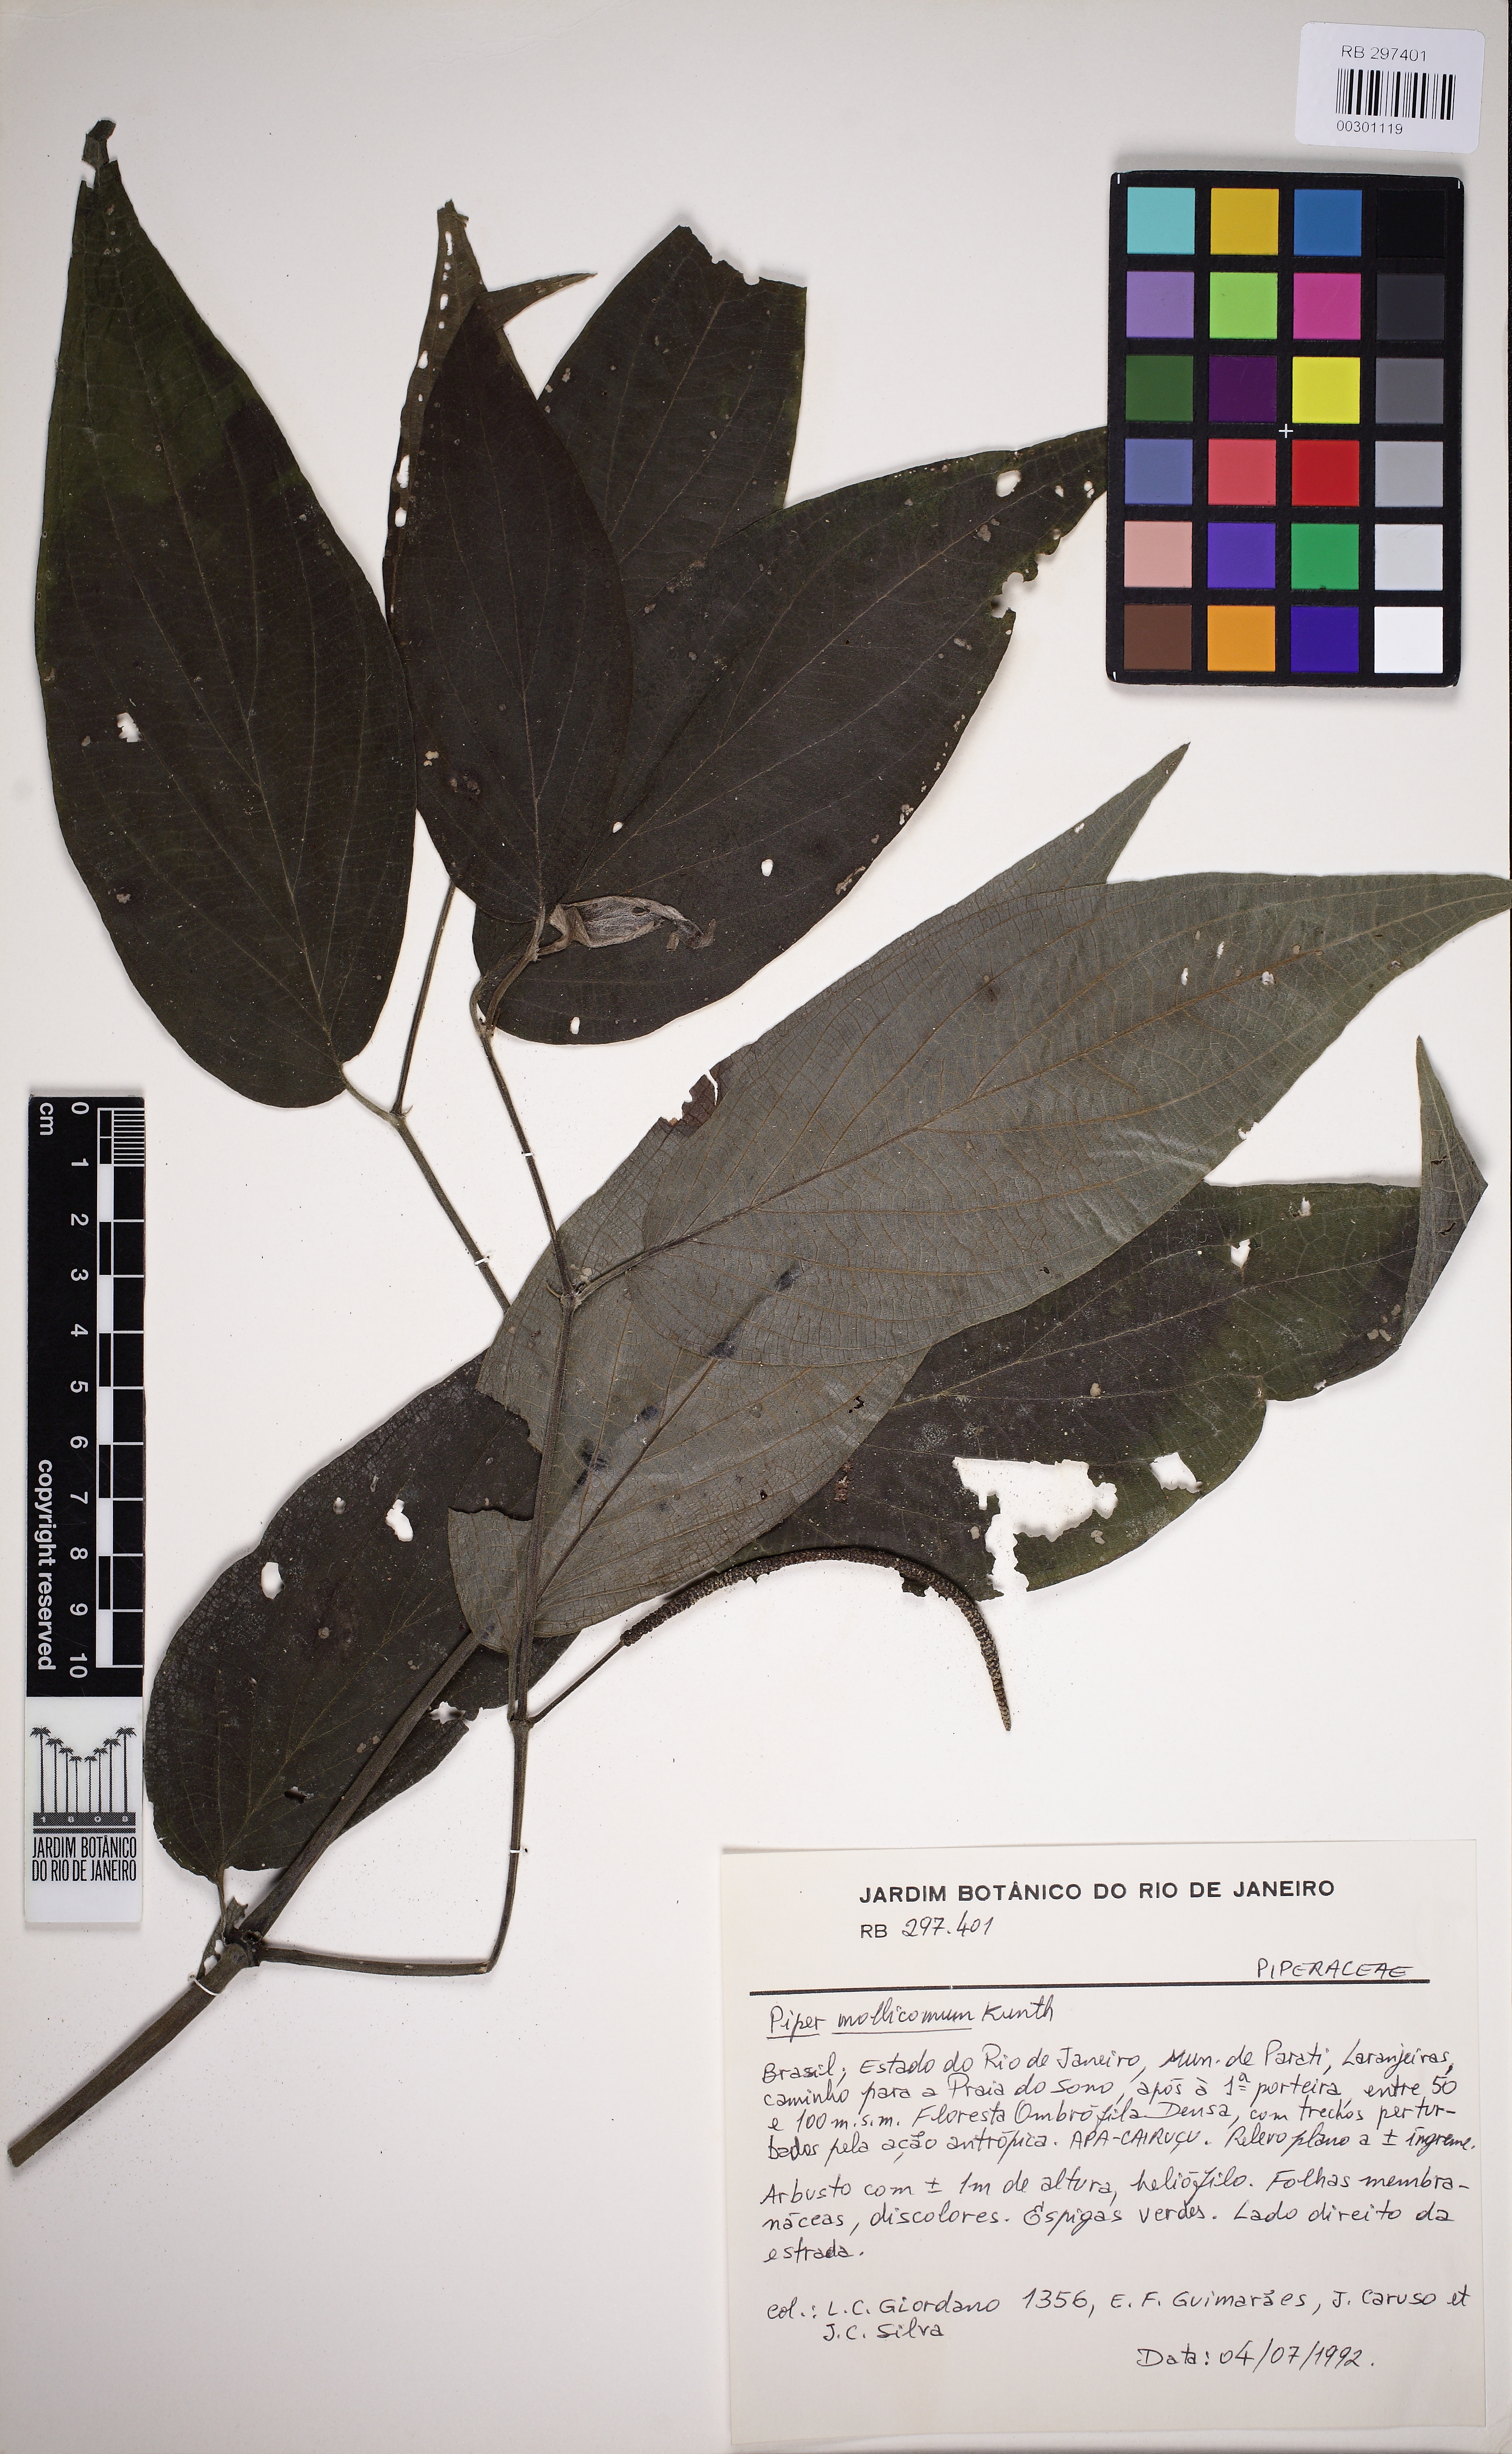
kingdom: Plantae
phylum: Tracheophyta
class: Magnoliopsida
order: Piperales
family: Piperaceae
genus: Piper
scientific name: Piper mollicomum
